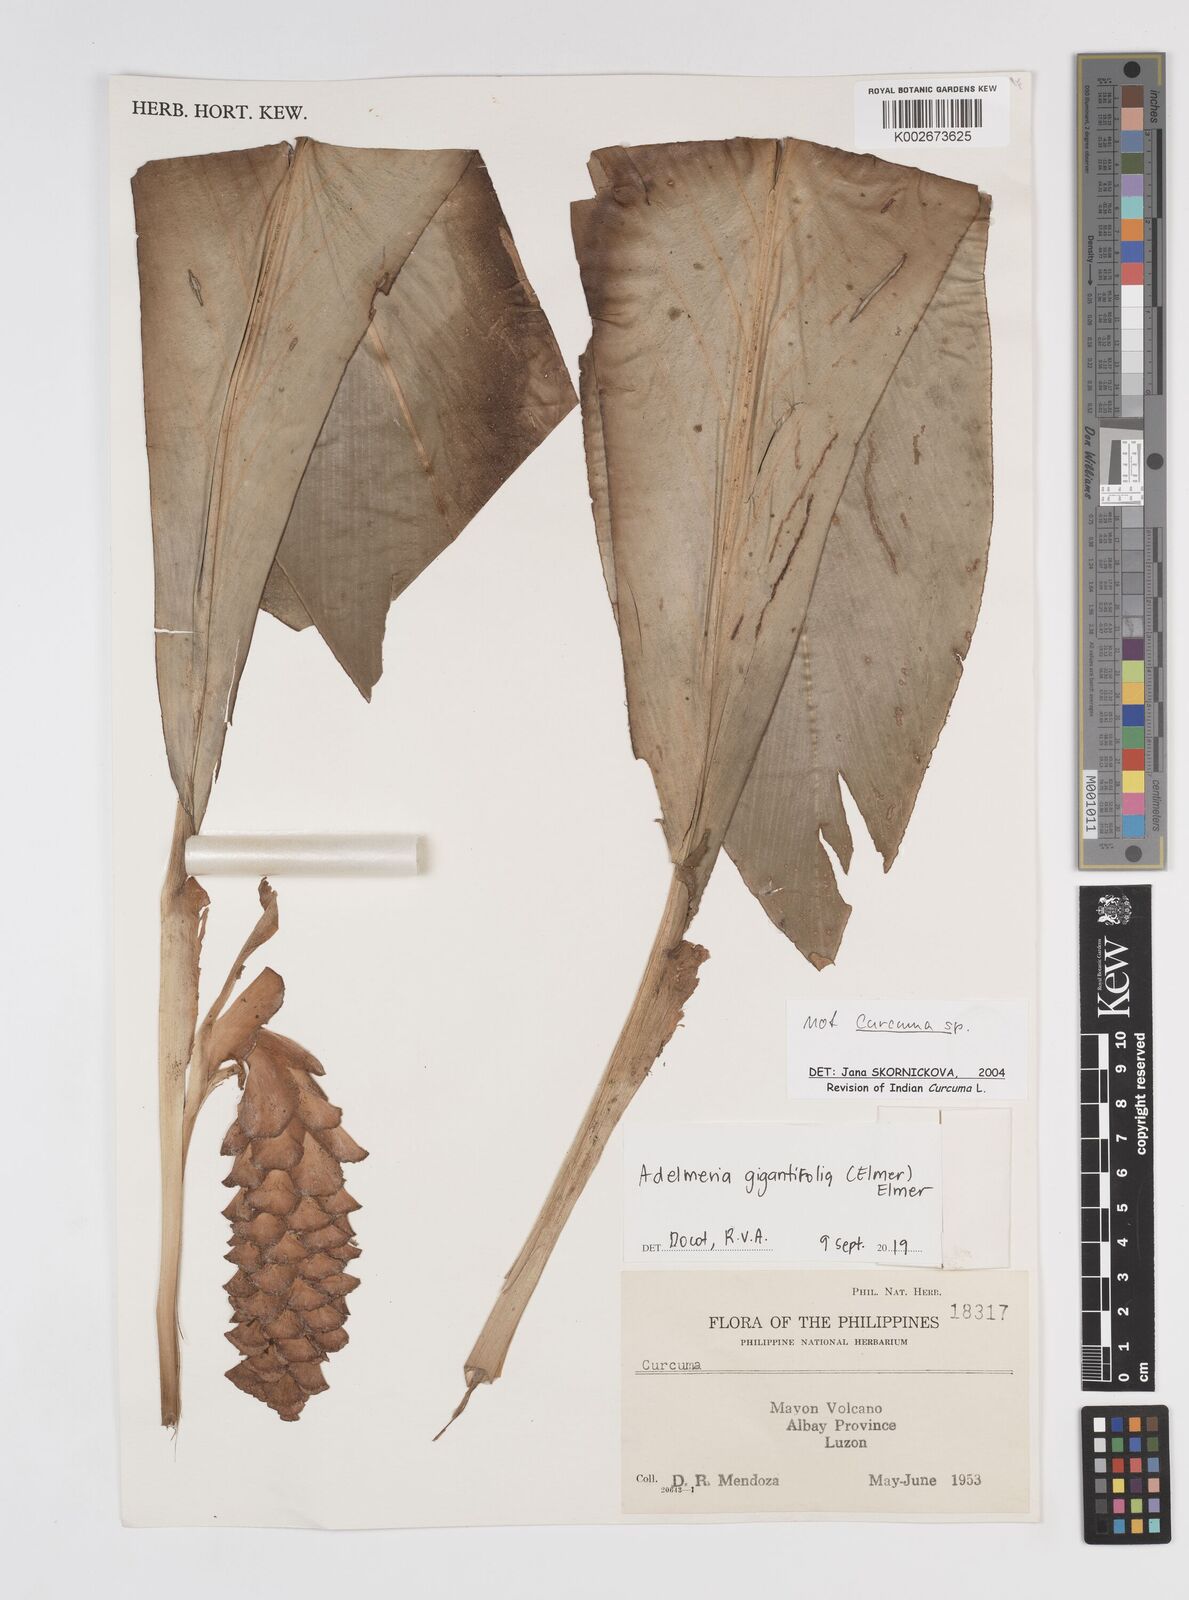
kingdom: Plantae
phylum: Tracheophyta
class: Liliopsida
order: Zingiberales
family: Zingiberaceae
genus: Adelmeria
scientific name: Adelmeria gigantifolia
